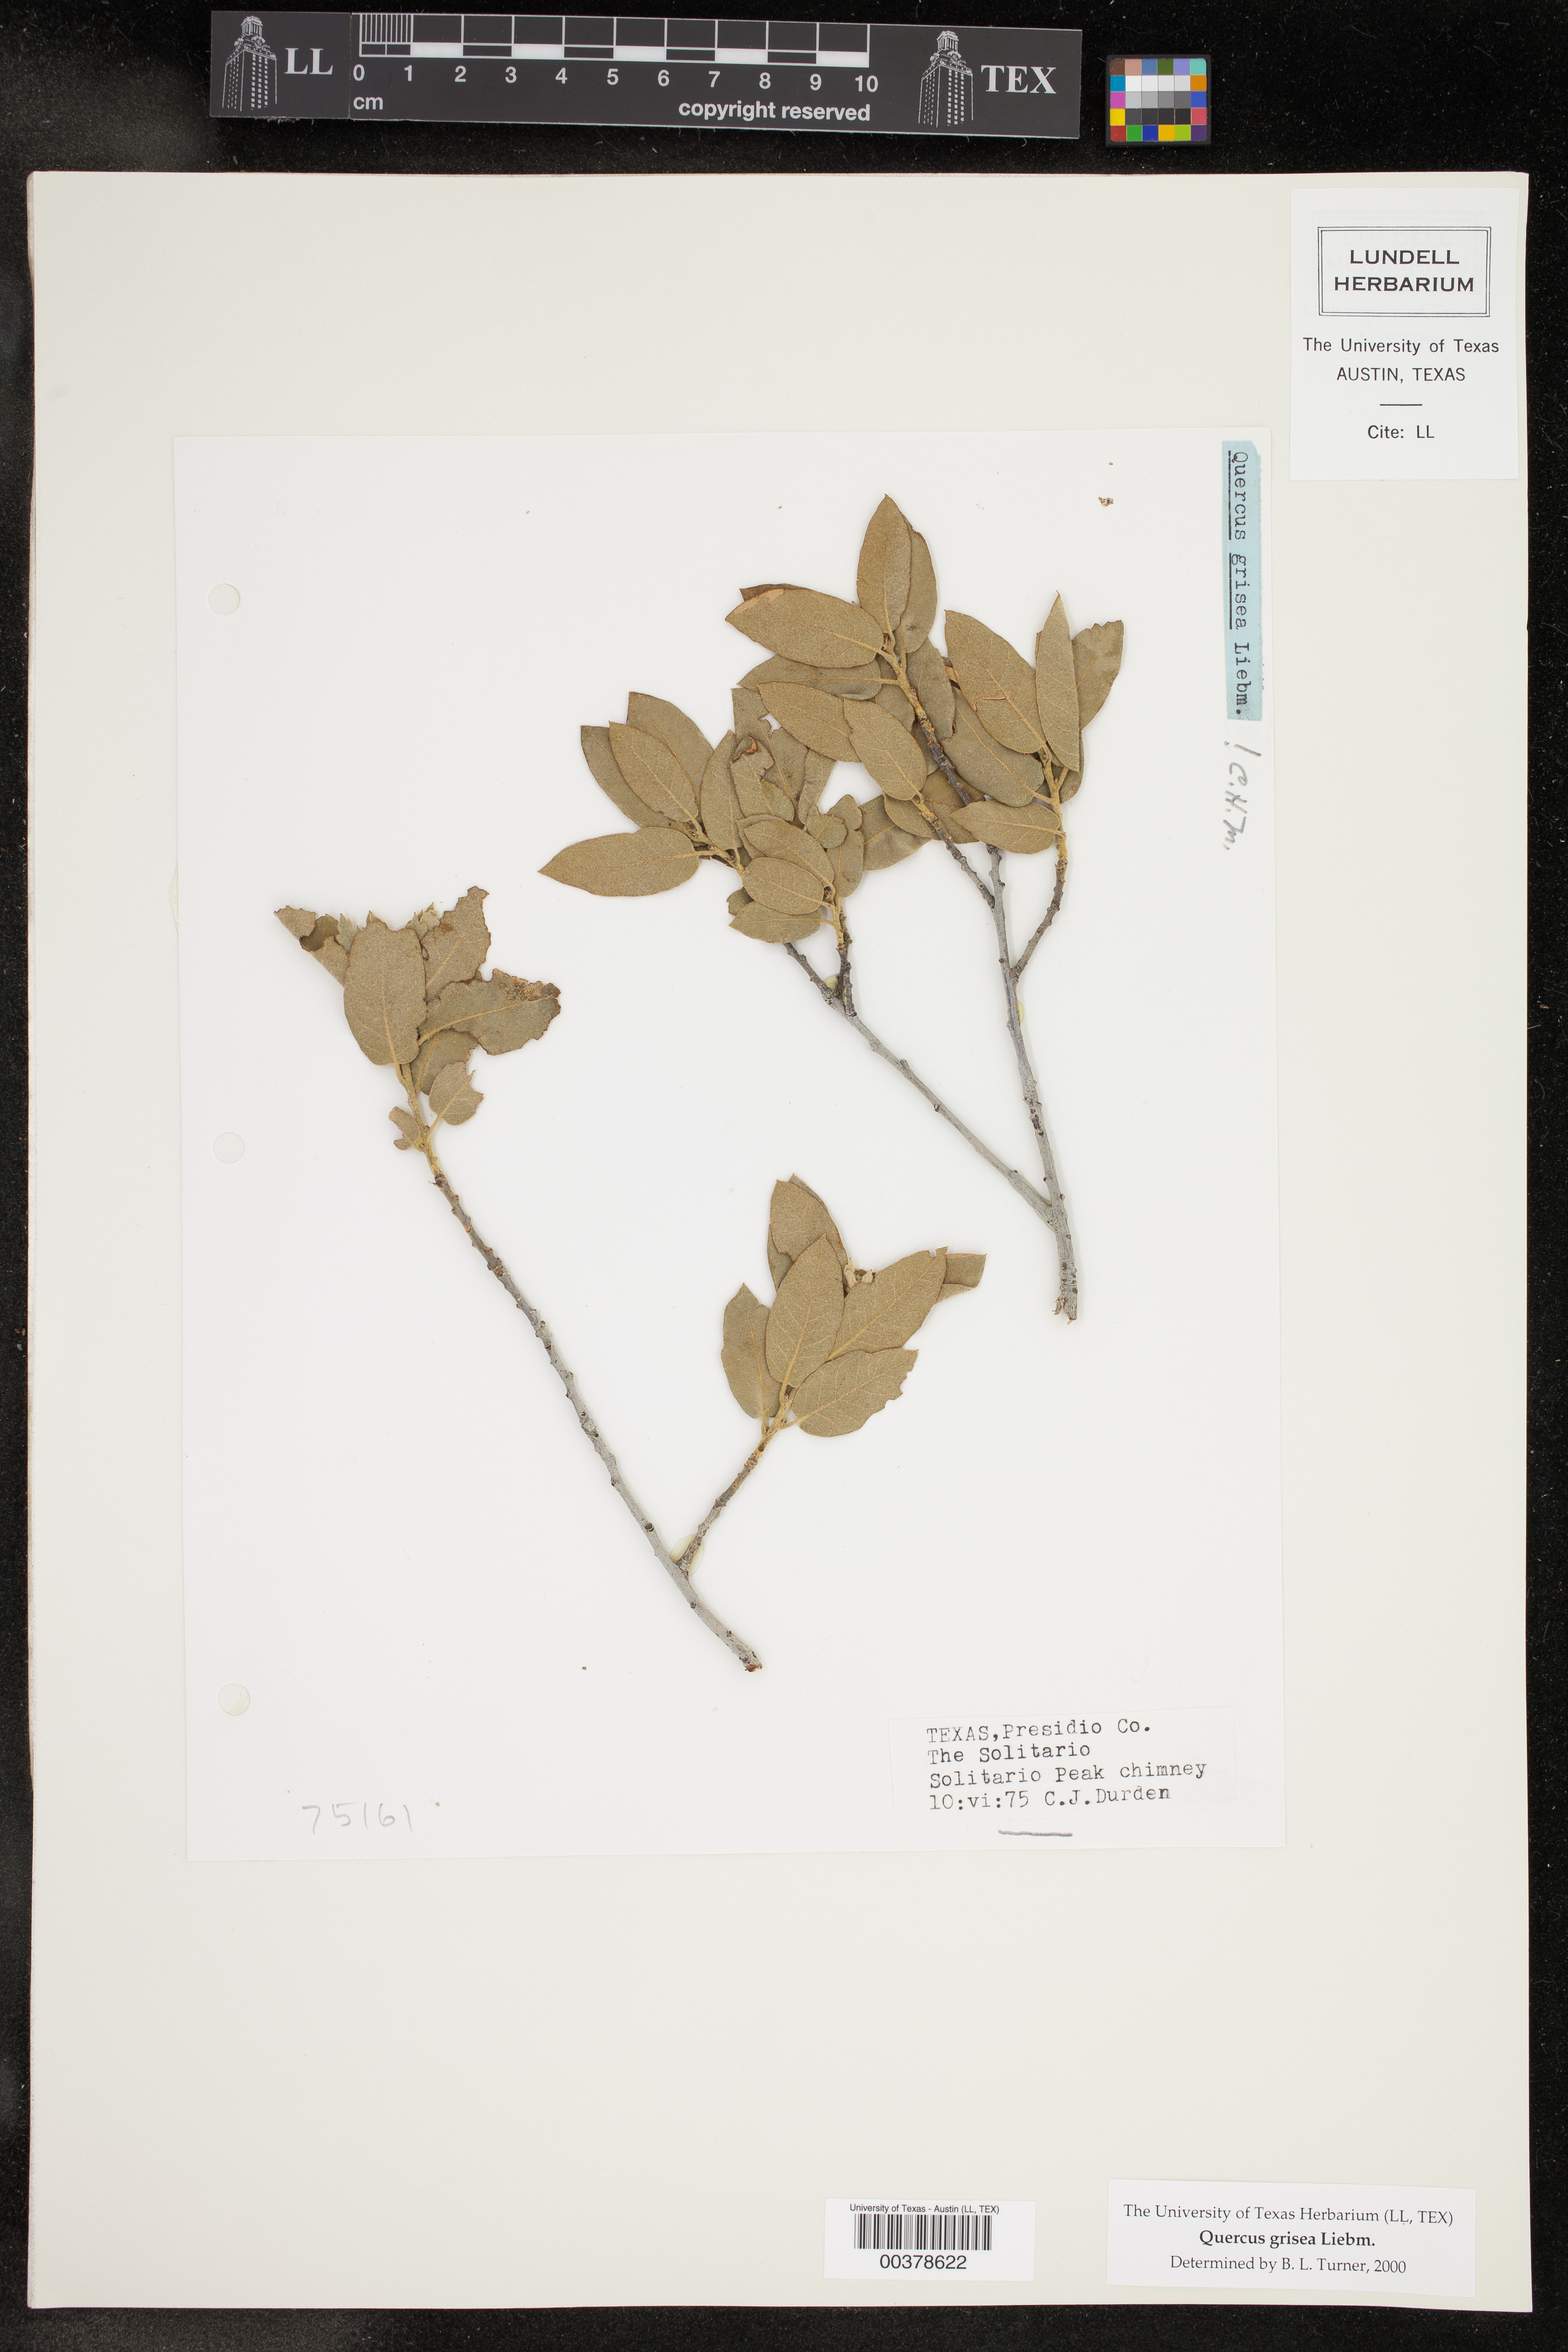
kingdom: Plantae
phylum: Tracheophyta
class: Magnoliopsida
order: Fagales
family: Fagaceae
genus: Quercus
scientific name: Quercus grisea
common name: Gray oak
